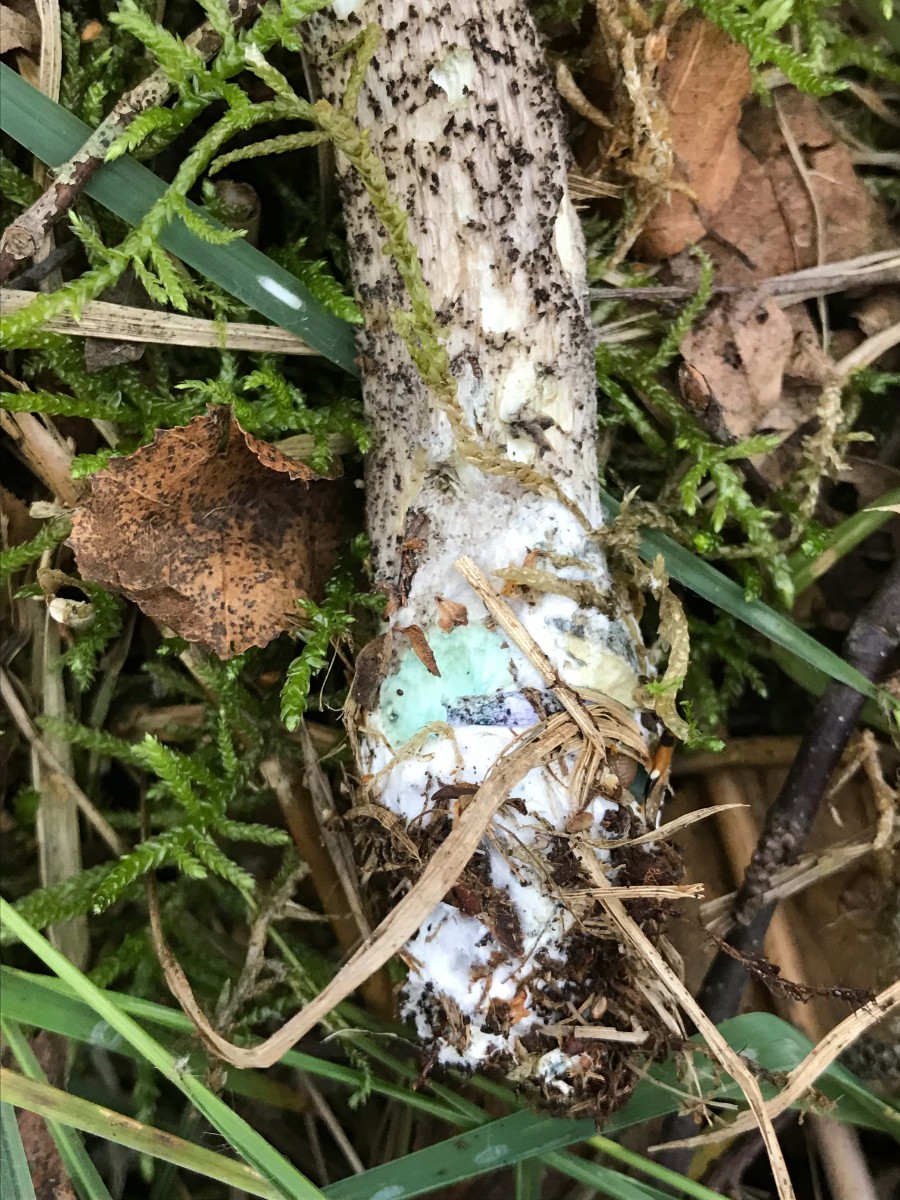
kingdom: Fungi
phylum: Basidiomycota
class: Agaricomycetes
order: Boletales
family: Boletaceae
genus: Leccinum
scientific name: Leccinum variicolor
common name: flammet skælrørhat
